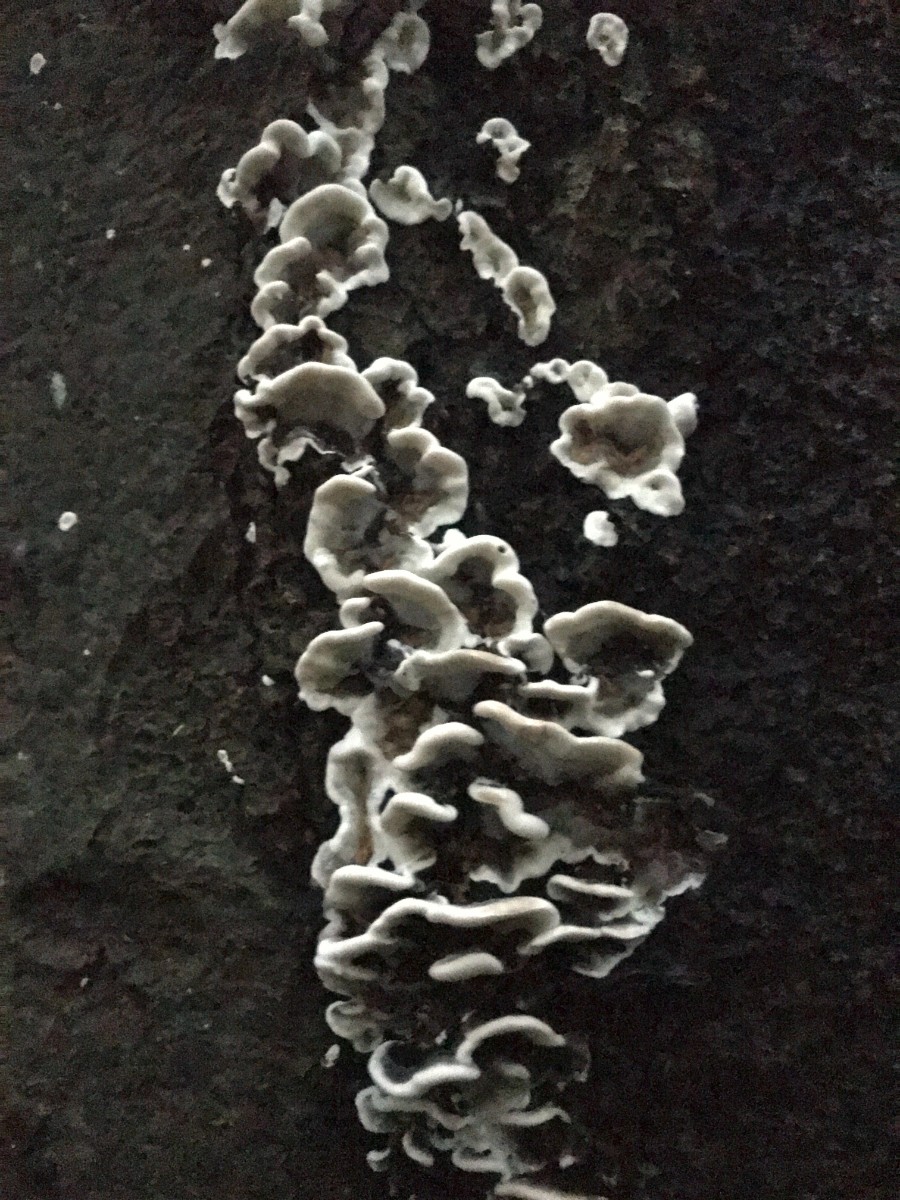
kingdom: Fungi
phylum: Basidiomycota
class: Agaricomycetes
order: Polyporales
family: Phanerochaetaceae
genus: Bjerkandera
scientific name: Bjerkandera adusta
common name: sveden sodporesvamp
